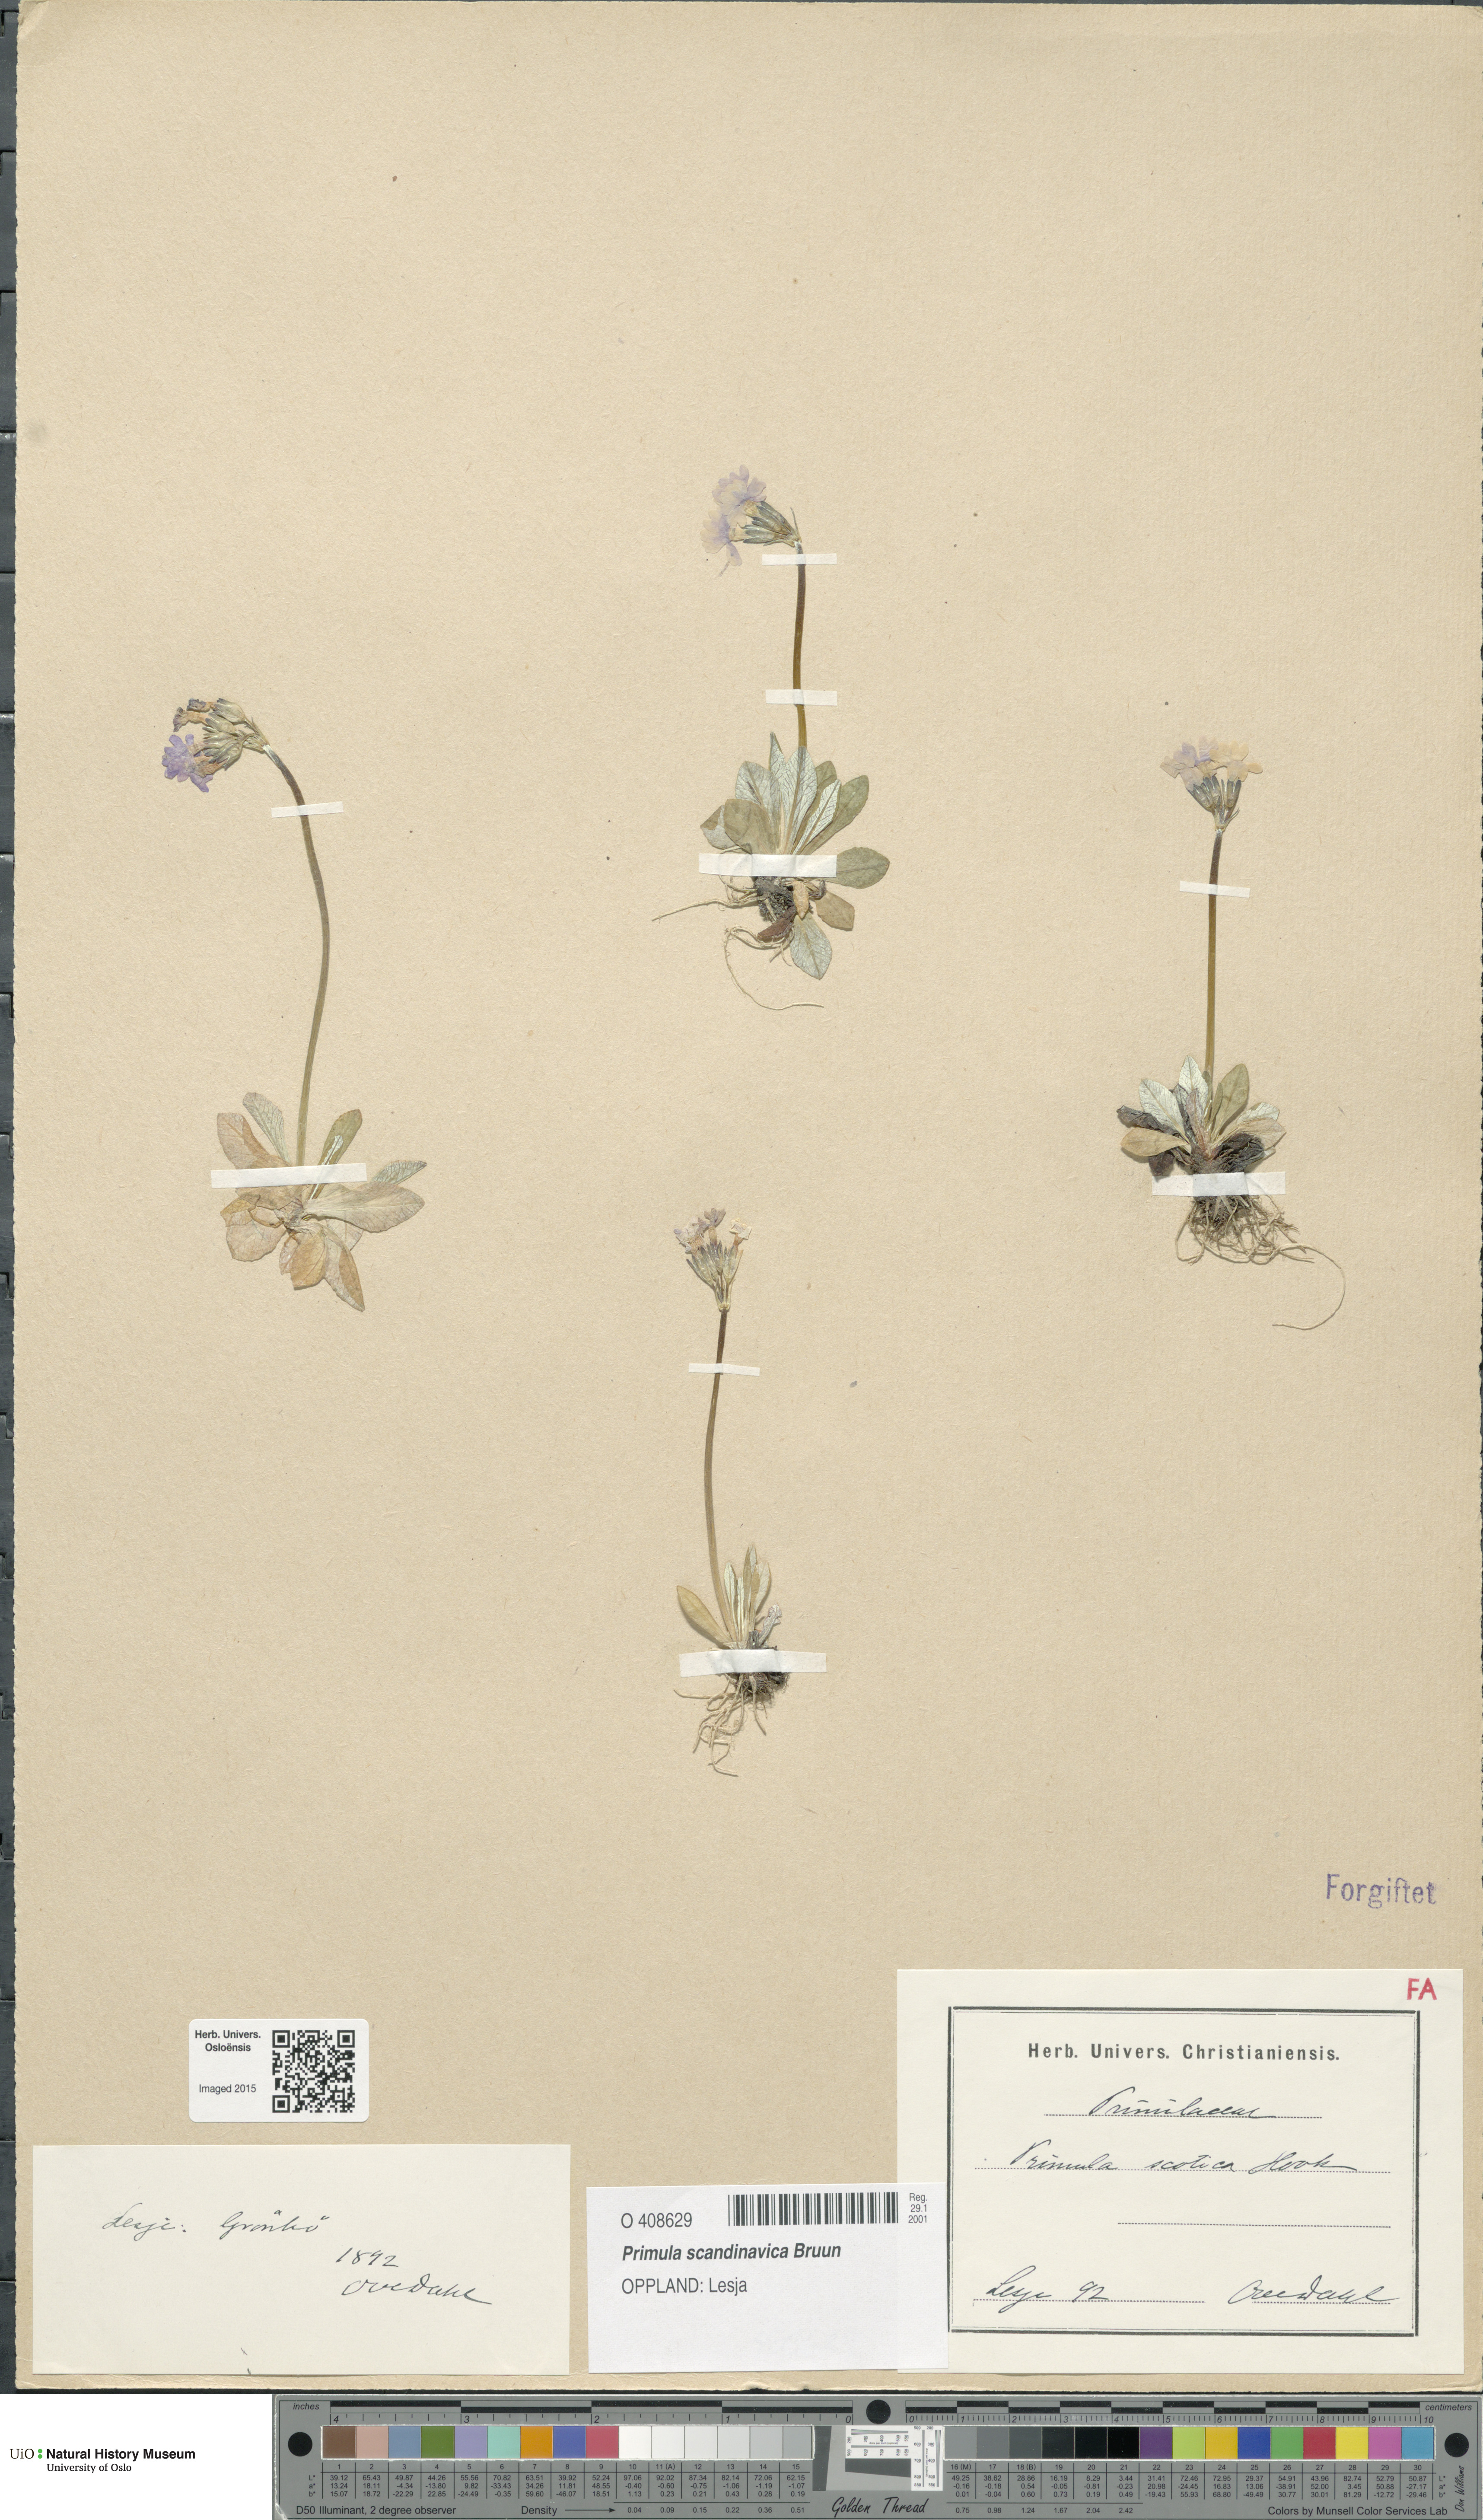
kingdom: Plantae
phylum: Tracheophyta
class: Magnoliopsida
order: Ericales
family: Primulaceae
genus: Primula
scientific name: Primula scandinavica
